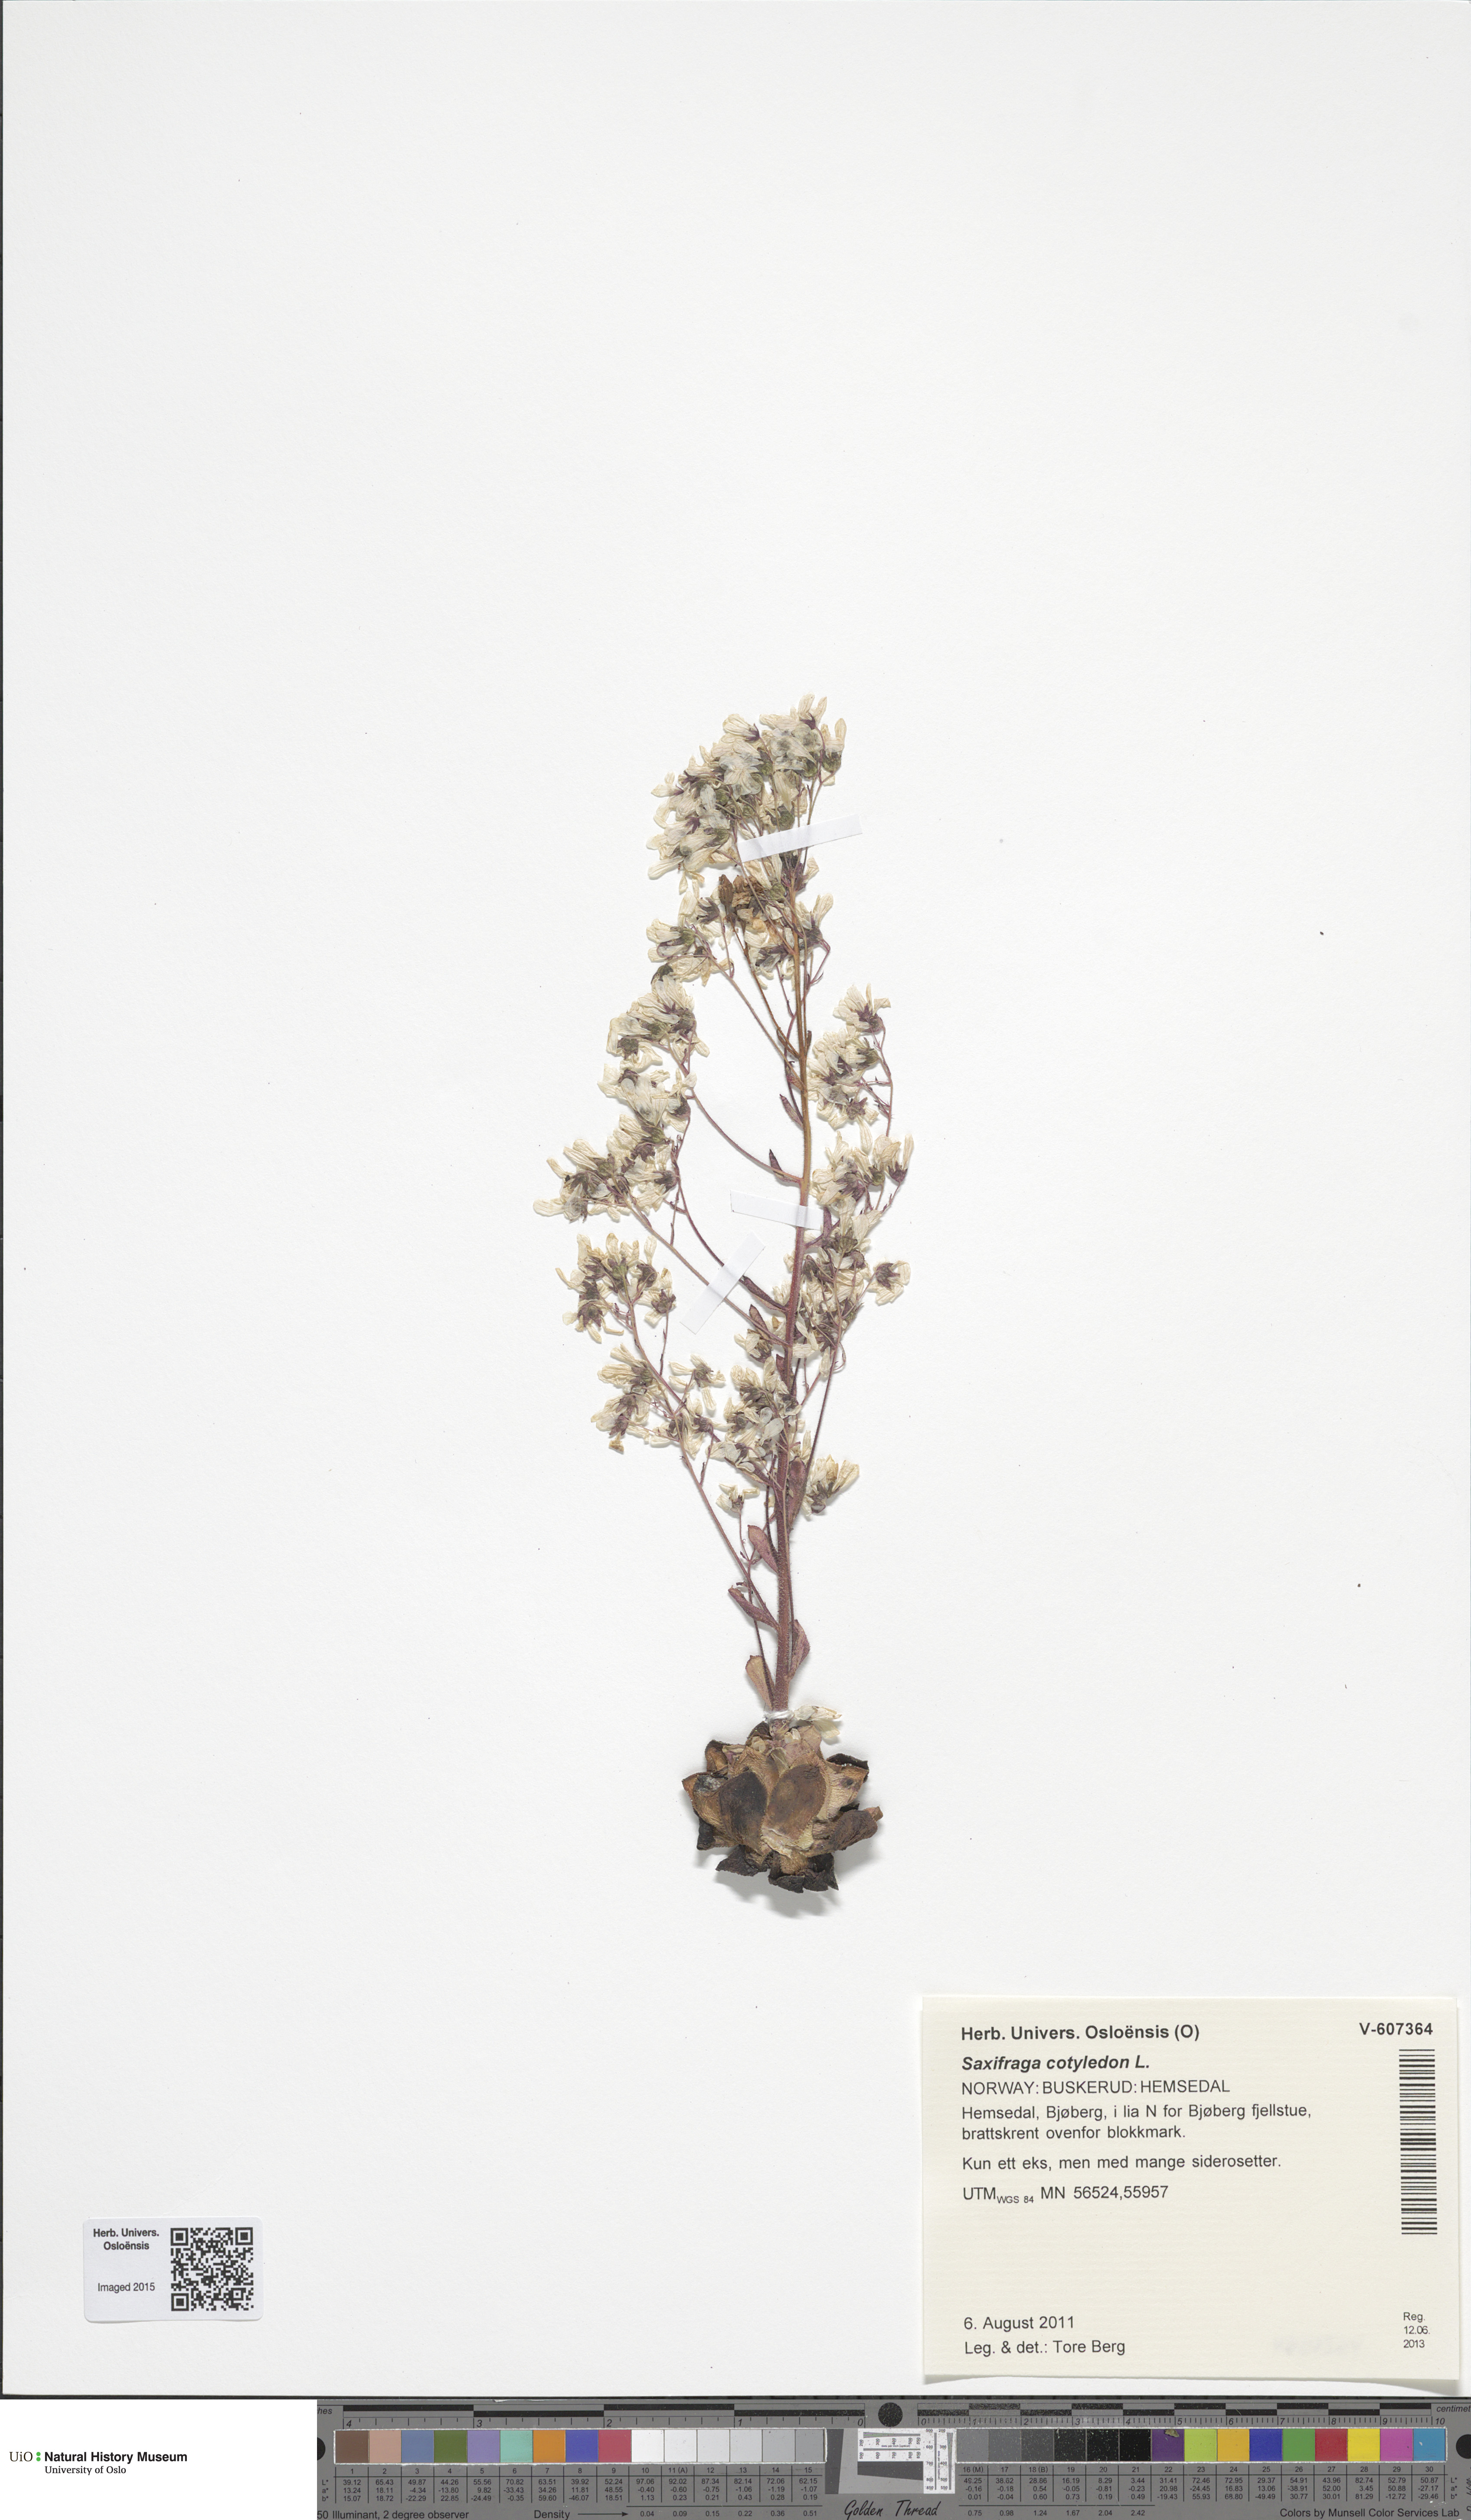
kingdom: Plantae
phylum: Tracheophyta
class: Magnoliopsida
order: Saxifragales
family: Saxifragaceae
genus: Saxifraga
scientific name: Saxifraga cotyledon
